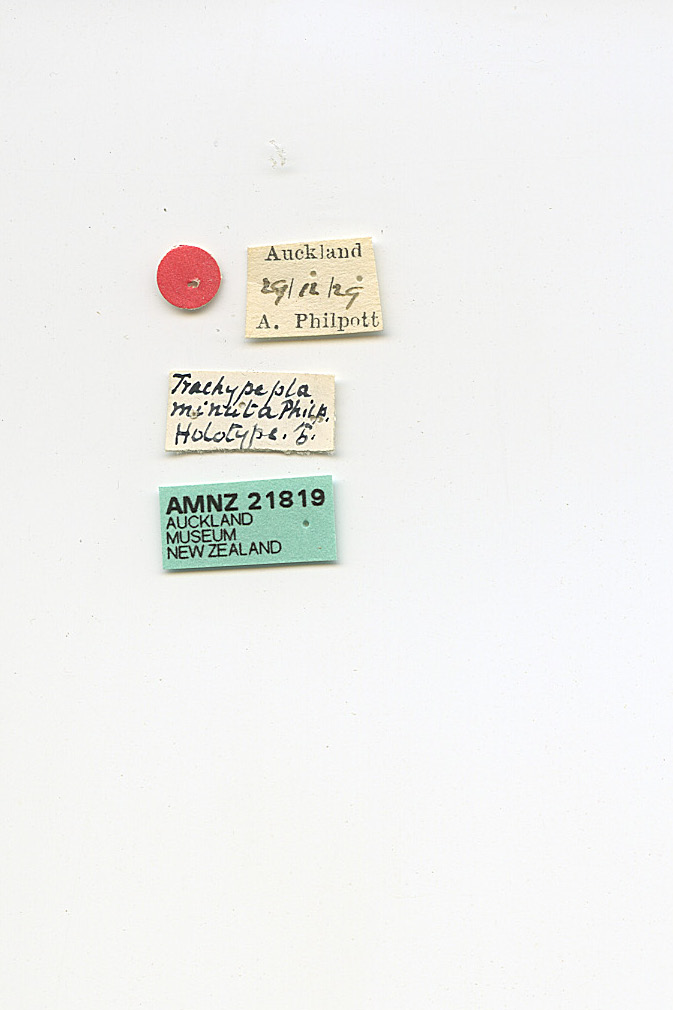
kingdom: Animalia
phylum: Arthropoda
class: Insecta
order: Lepidoptera
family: Oecophoridae
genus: Trachypepla
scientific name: Trachypepla minuta
